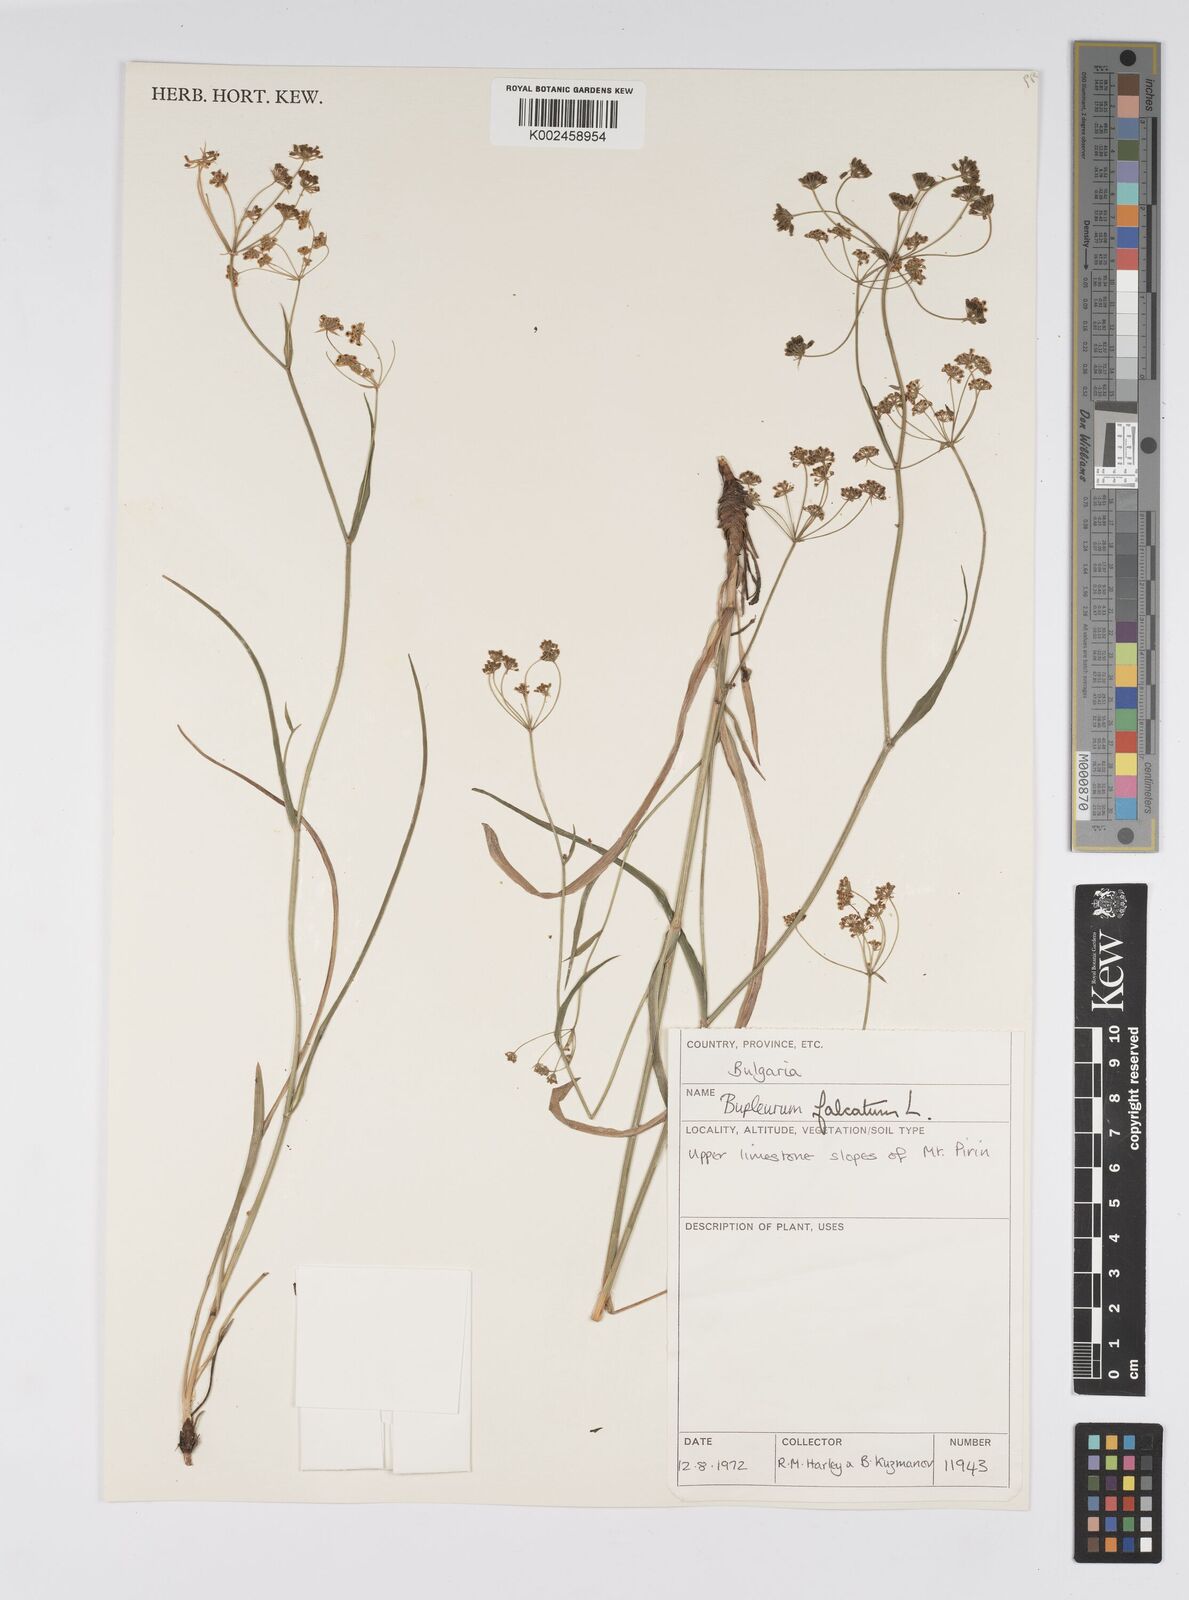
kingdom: Plantae
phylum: Tracheophyta
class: Magnoliopsida
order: Apiales
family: Apiaceae
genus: Bupleurum
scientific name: Bupleurum falcatum
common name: Sickle-leaved hare's-ear
